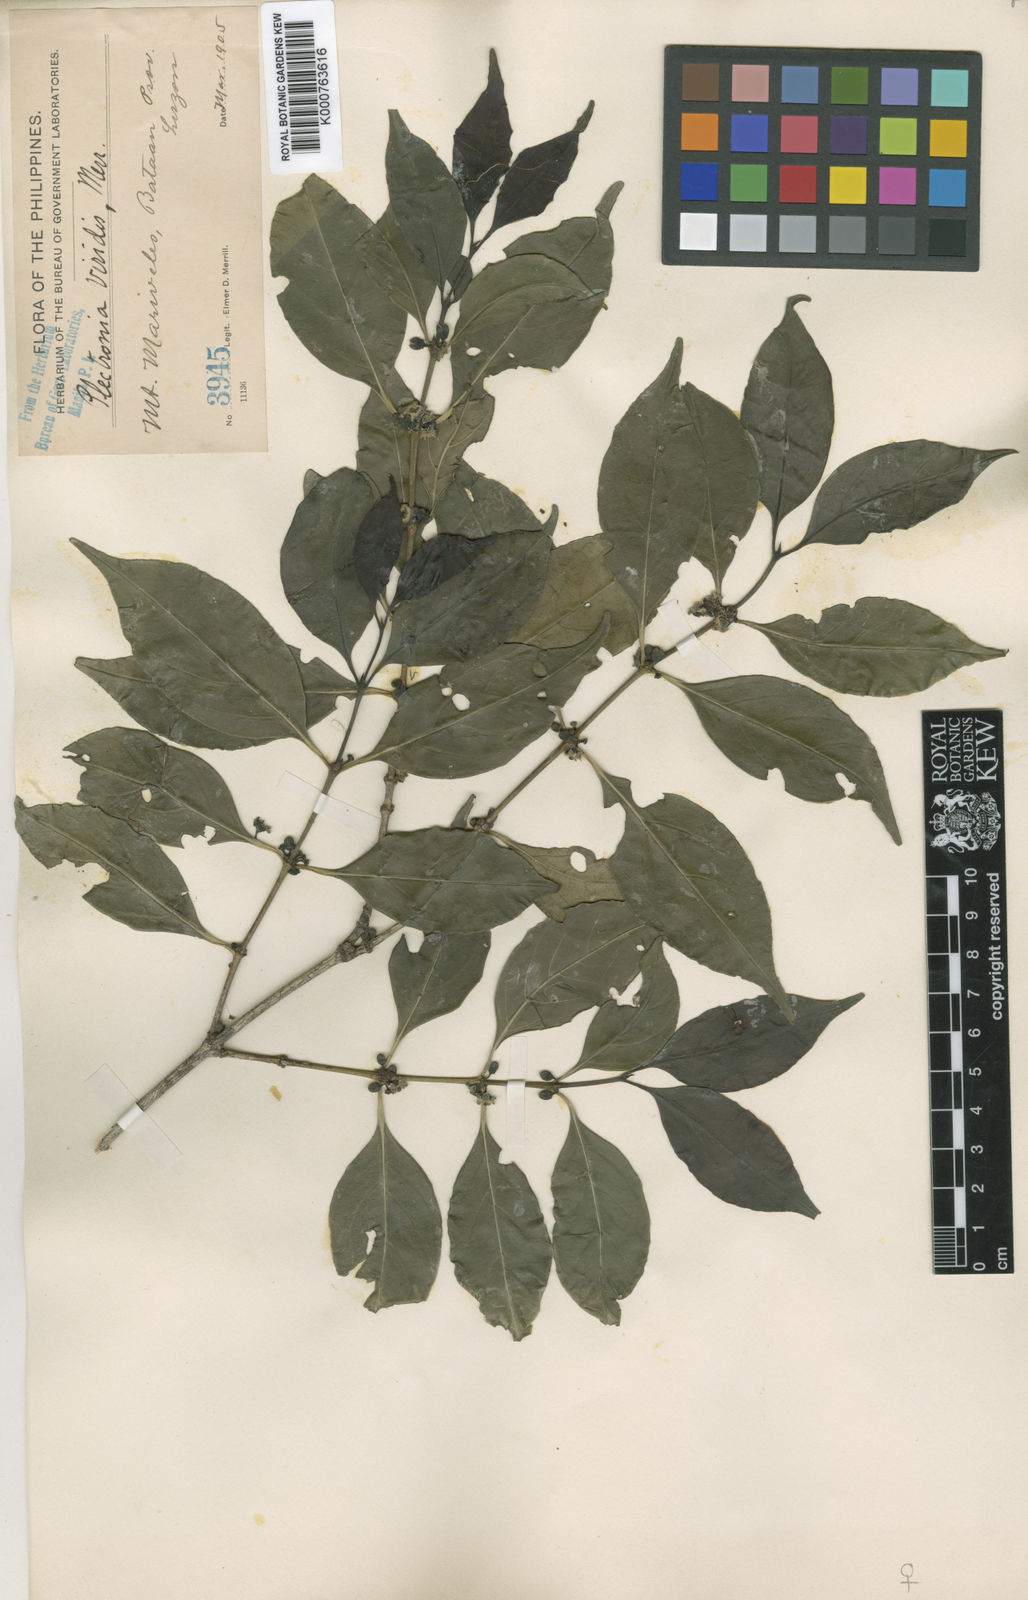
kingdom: Plantae
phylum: Tracheophyta
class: Magnoliopsida
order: Gentianales
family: Rubiaceae
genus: Dibridsonia
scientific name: Dibridsonia conferta
